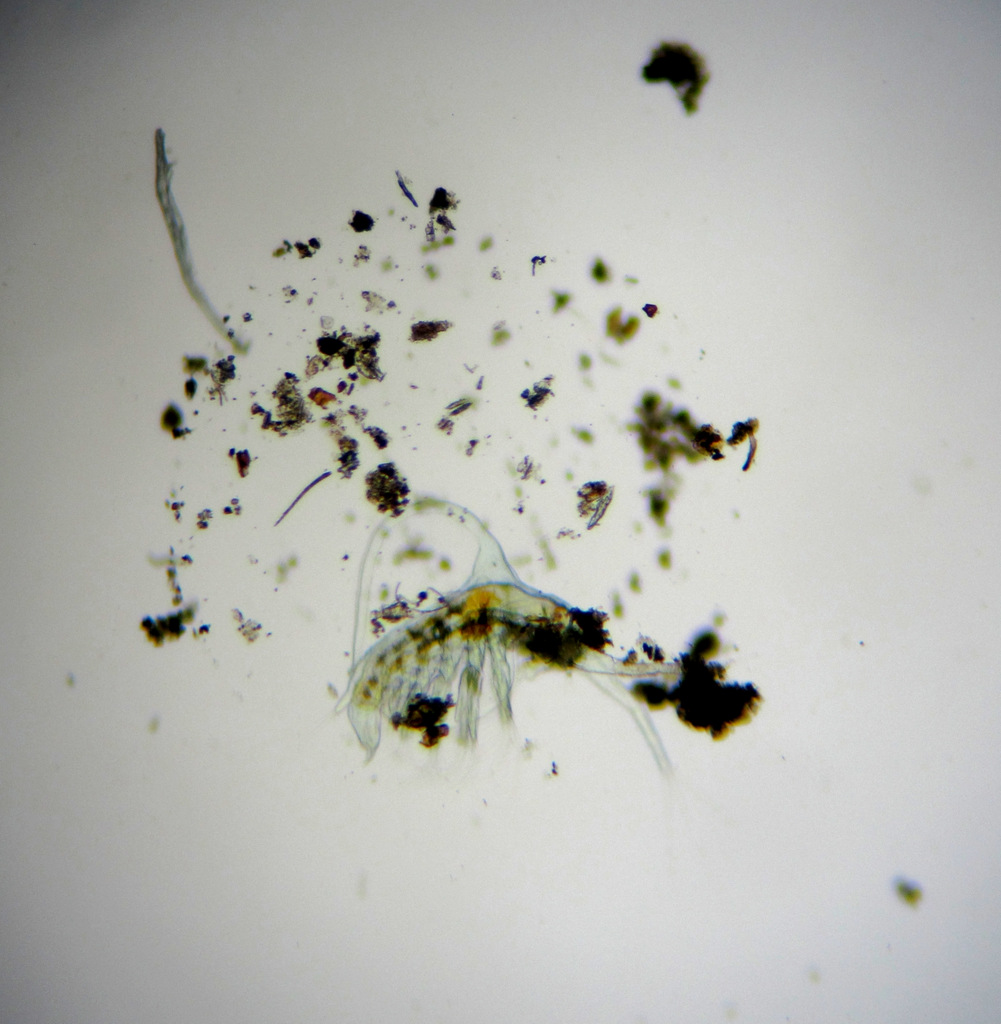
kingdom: Animalia
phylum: Arthropoda
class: Branchiopoda
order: Diplostraca
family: Holopediidae
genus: Holopedium
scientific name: Holopedium gibberum
